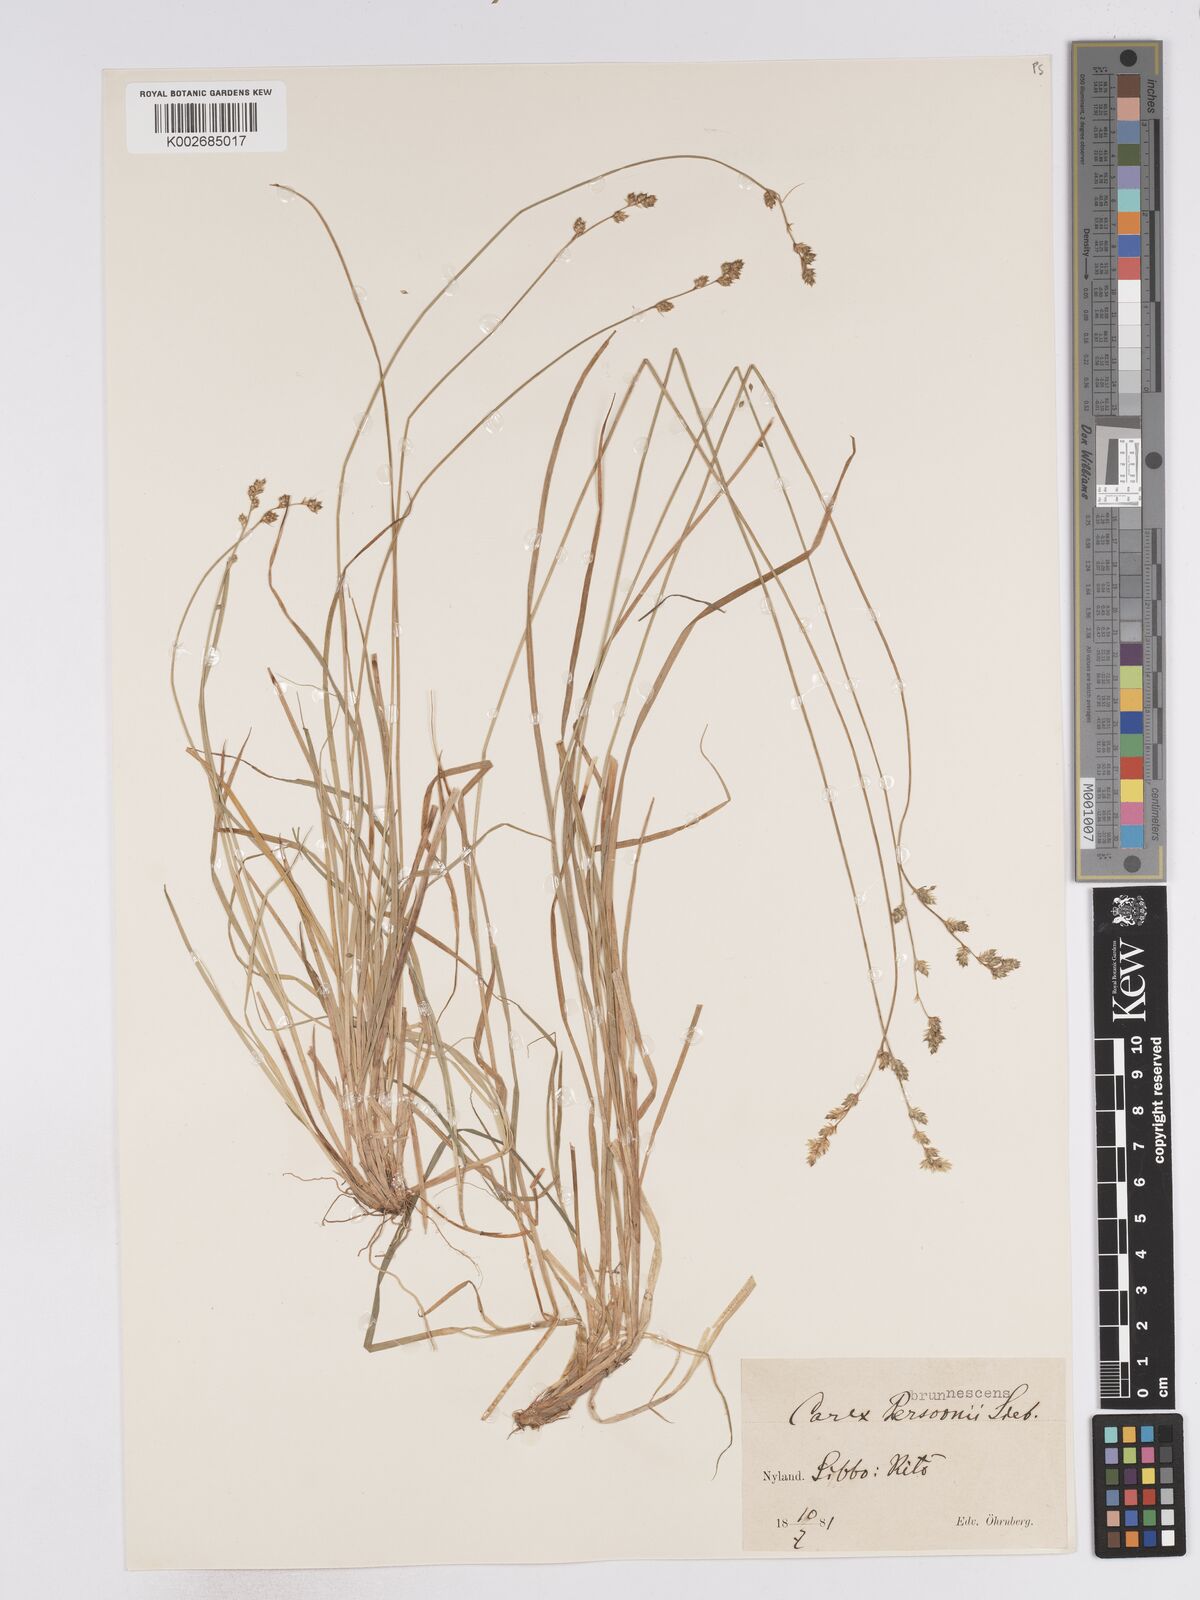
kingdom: Plantae
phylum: Tracheophyta
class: Liliopsida
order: Poales
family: Cyperaceae
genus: Carex
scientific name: Carex brunnescens
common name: Brown sedge
